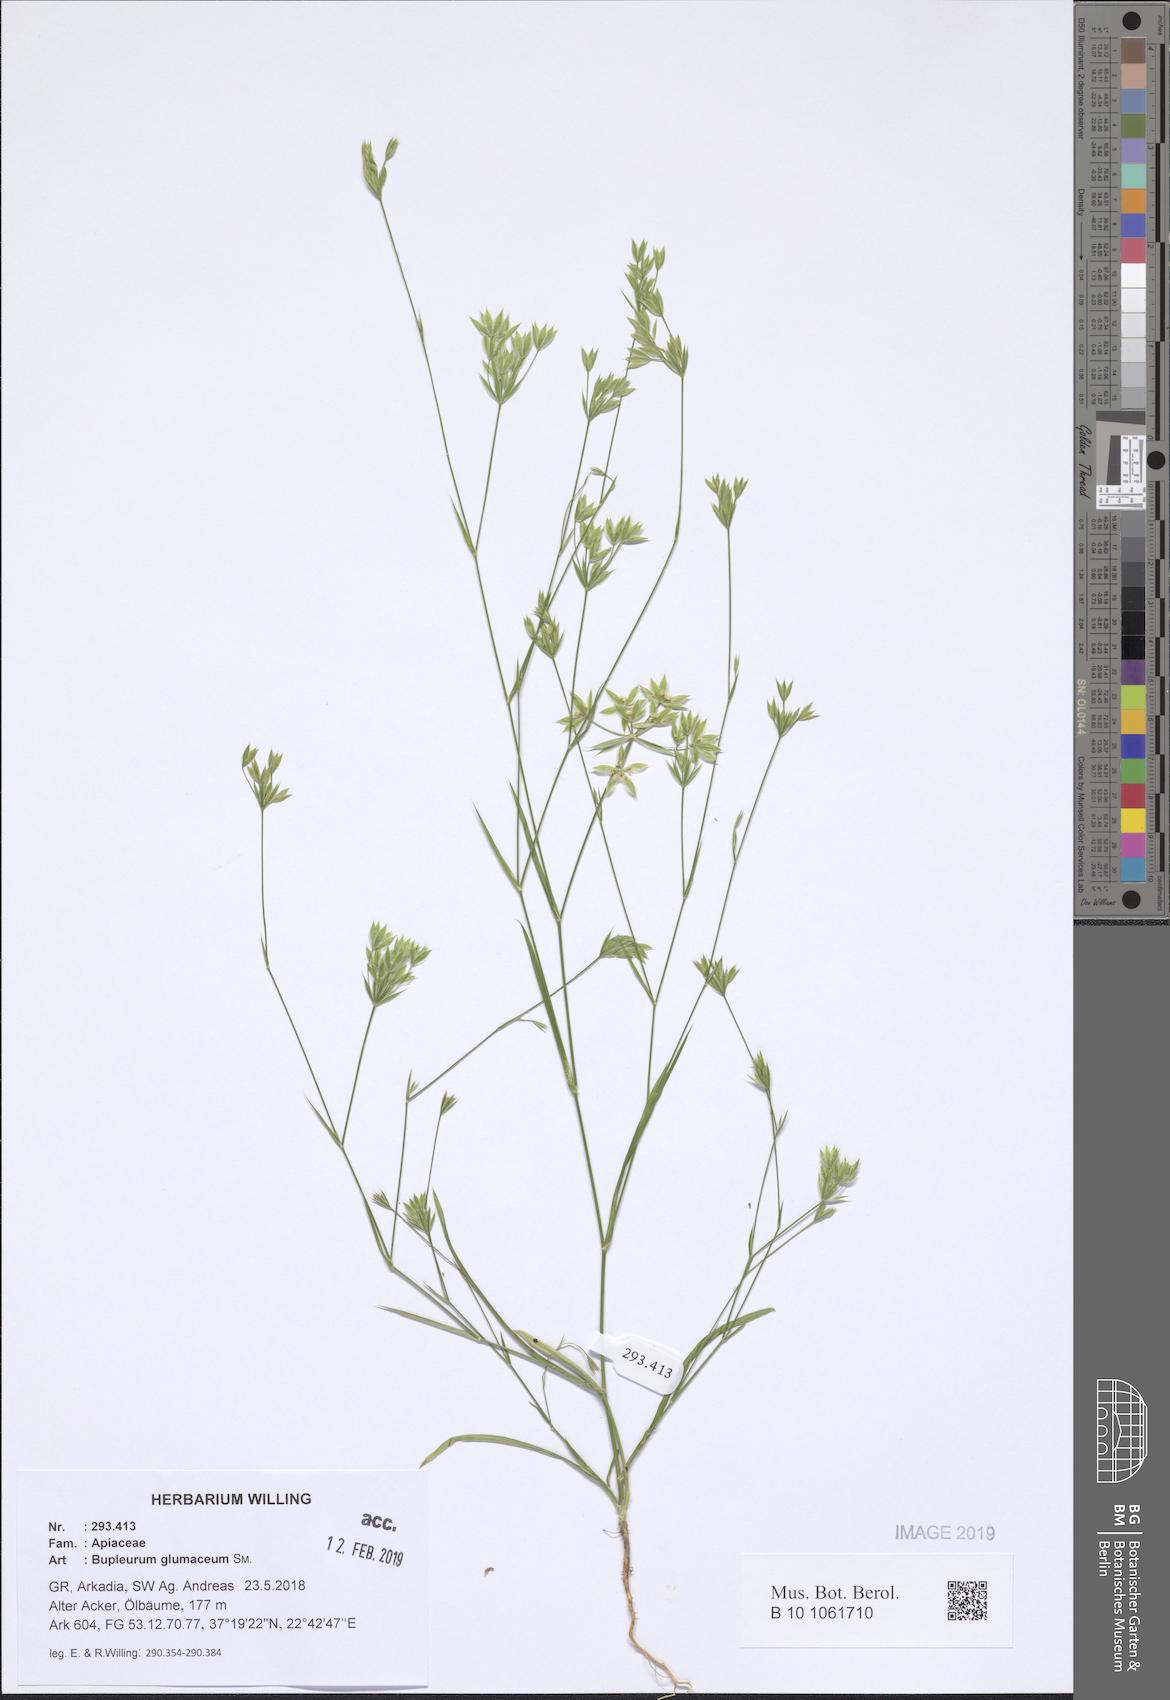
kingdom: Plantae
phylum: Tracheophyta
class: Magnoliopsida
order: Apiales
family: Apiaceae
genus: Bupleurum
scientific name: Bupleurum glumaceum
